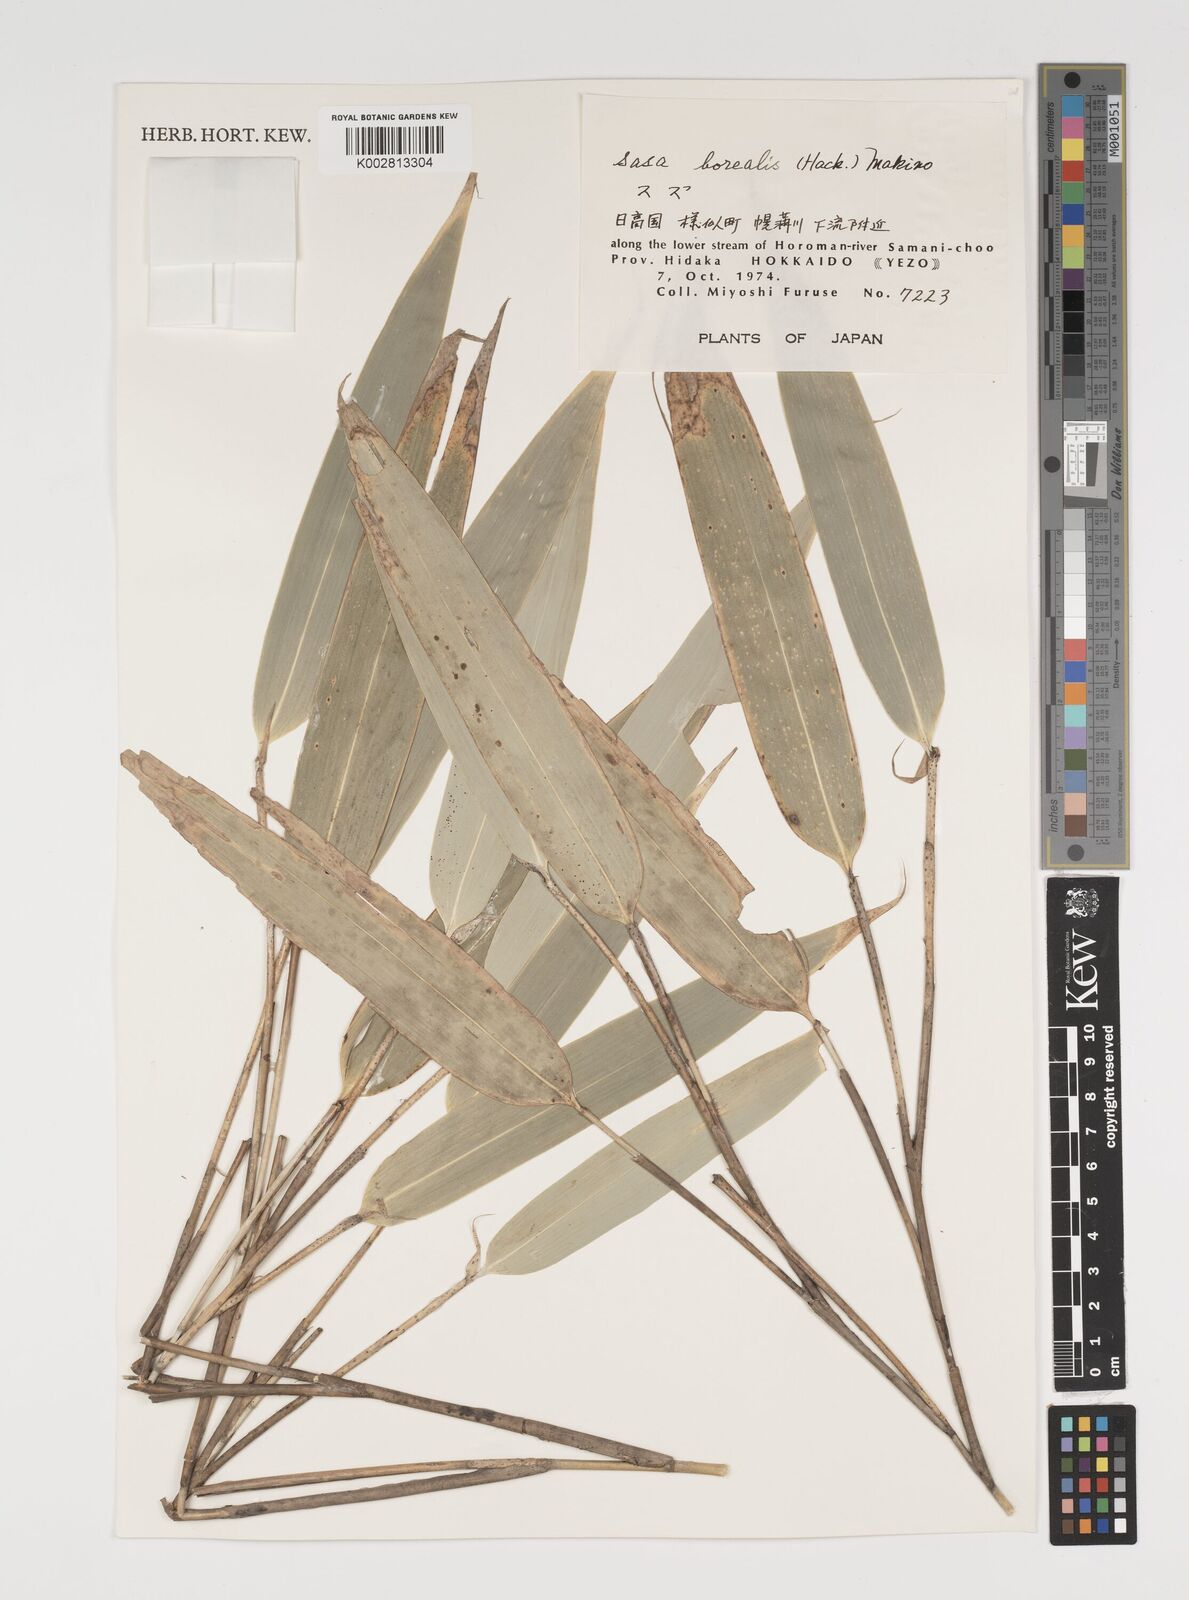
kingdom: Plantae
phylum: Tracheophyta
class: Liliopsida
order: Poales
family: Poaceae
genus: Sasamorpha
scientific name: Sasamorpha borealis
